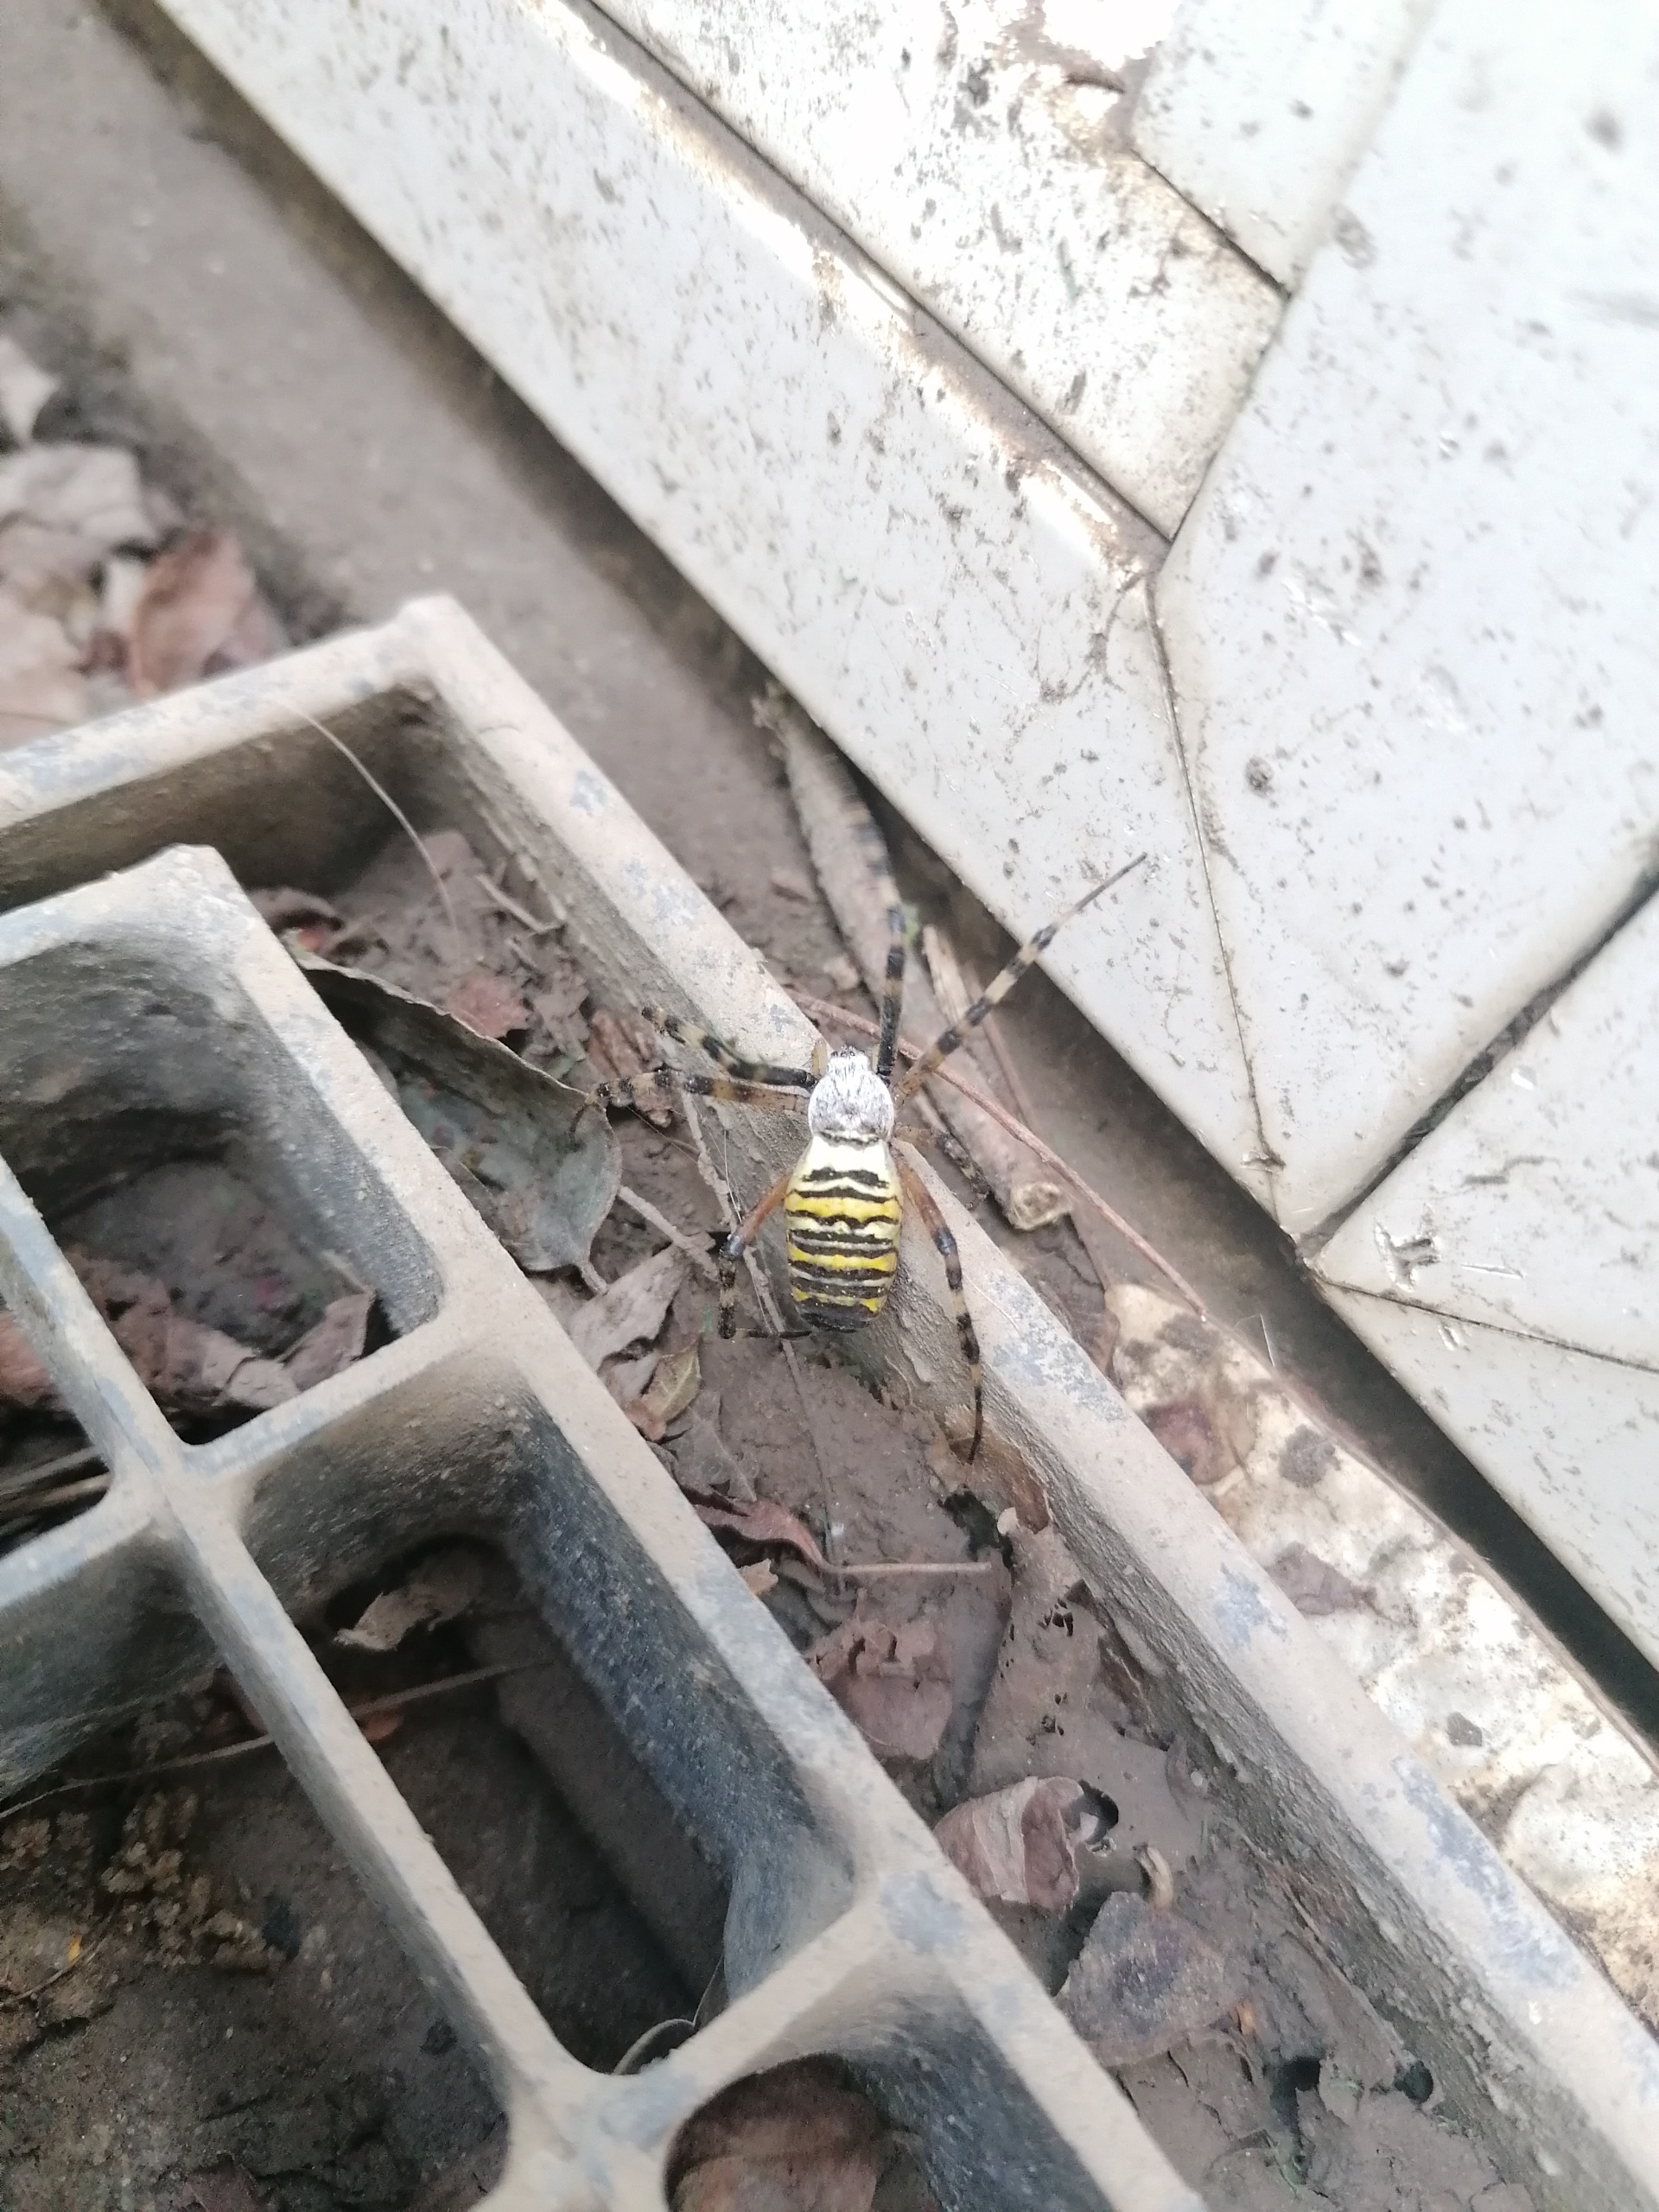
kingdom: Animalia
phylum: Arthropoda
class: Arachnida
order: Araneae
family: Araneidae
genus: Argiope
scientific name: Argiope bruennichi
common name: Hvepseedderkop
